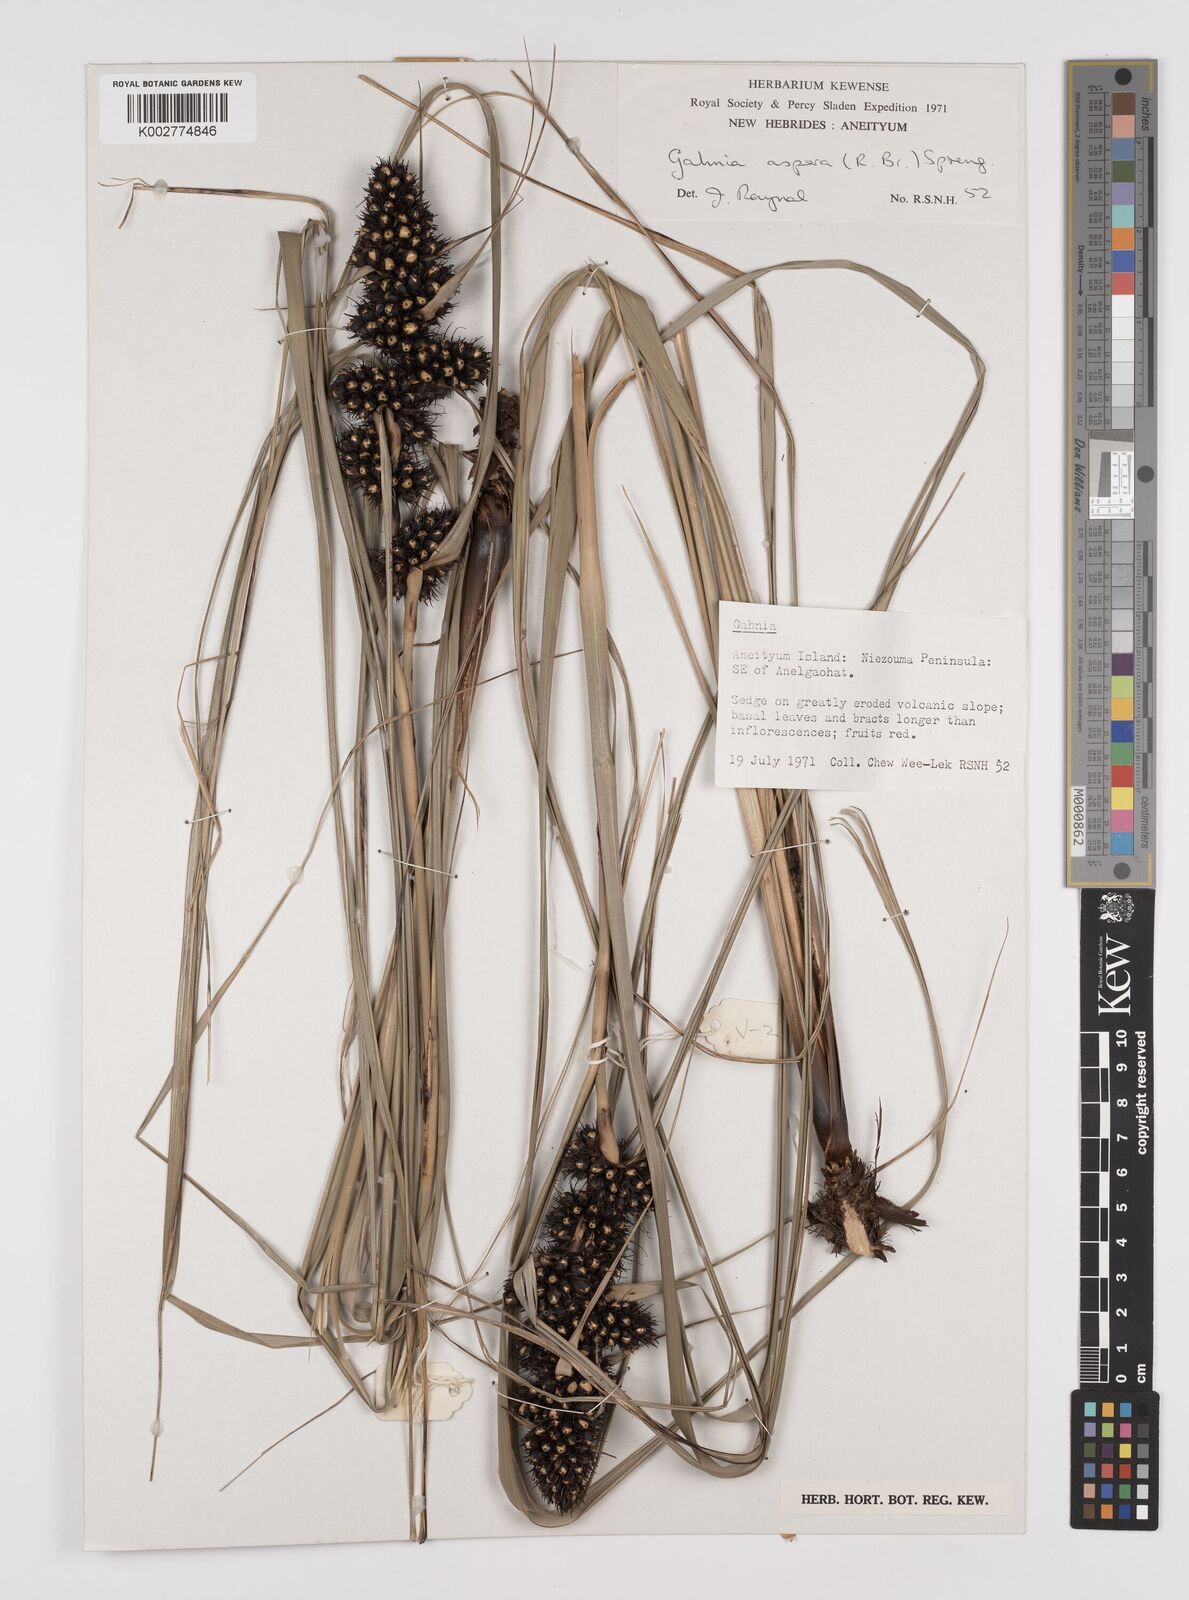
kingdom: Plantae
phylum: Tracheophyta
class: Liliopsida
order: Poales
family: Cyperaceae
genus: Gahnia
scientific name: Gahnia aspera
